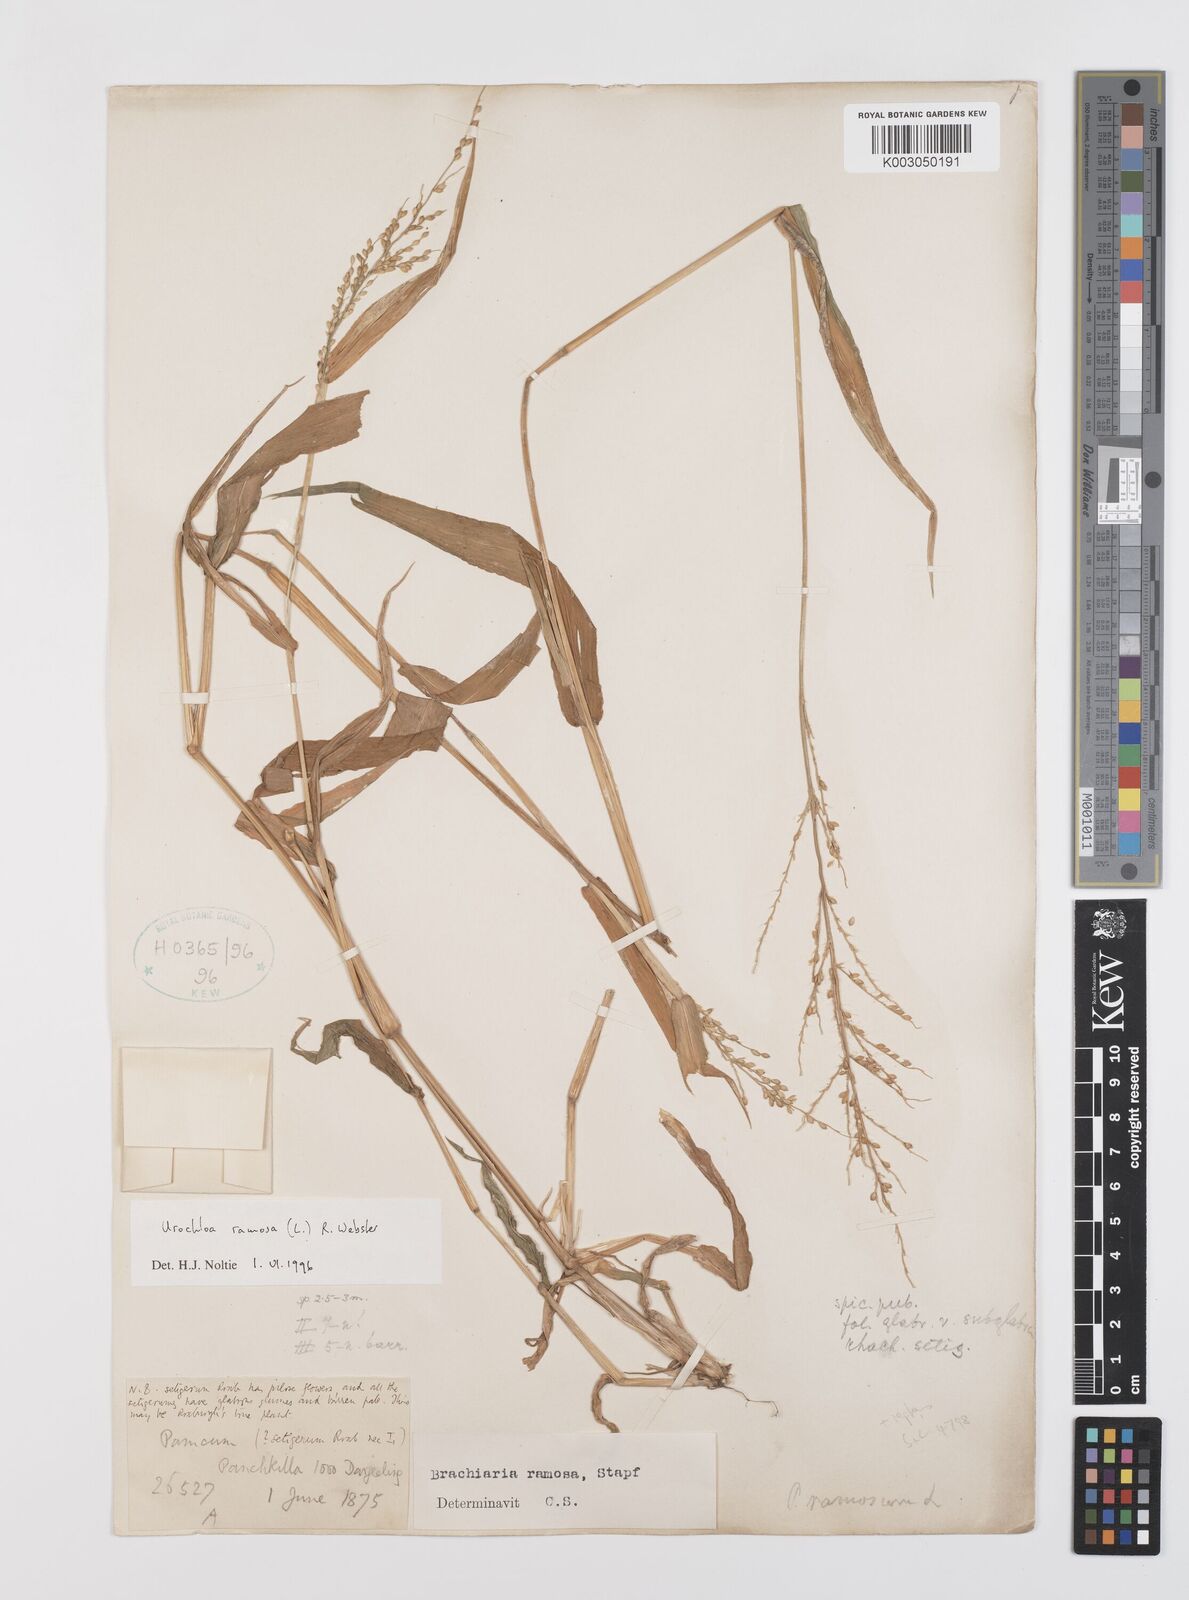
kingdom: Plantae
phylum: Tracheophyta
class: Liliopsida
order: Poales
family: Poaceae
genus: Urochloa
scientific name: Urochloa ramosa
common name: Browntop millet
